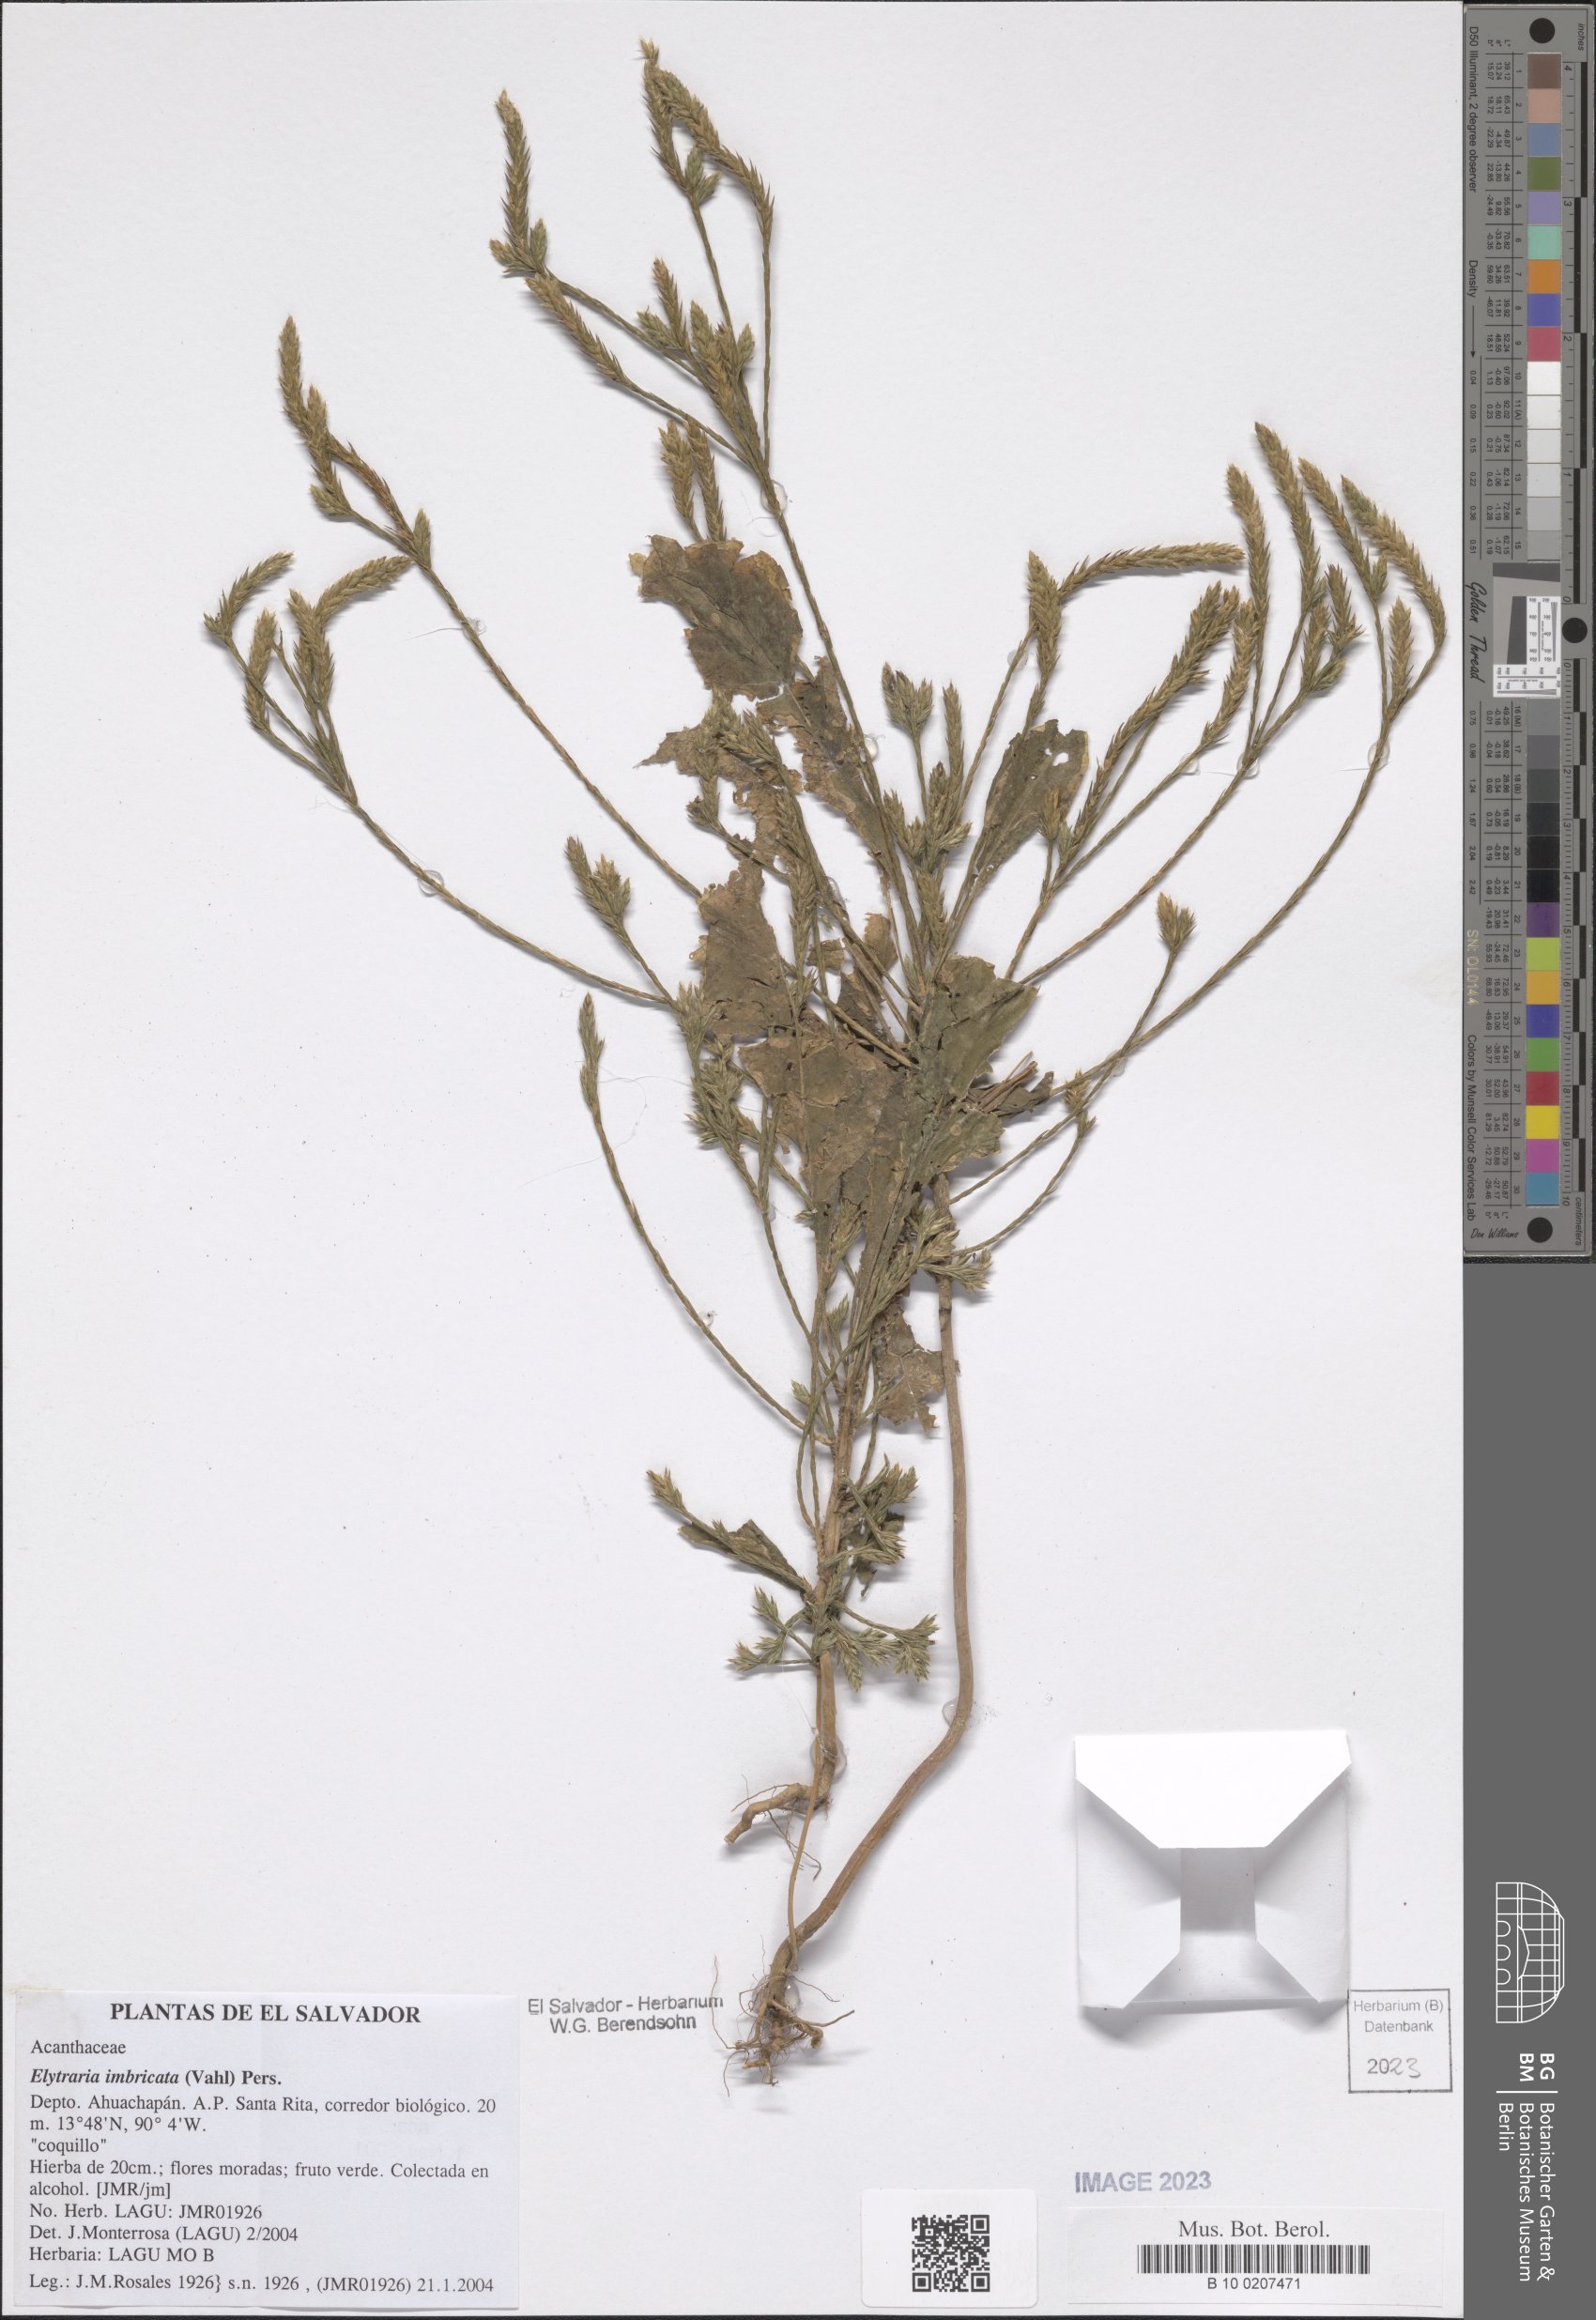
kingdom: Plantae
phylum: Tracheophyta
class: Magnoliopsida
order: Lamiales
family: Acanthaceae
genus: Elytraria
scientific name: Elytraria imbricata
